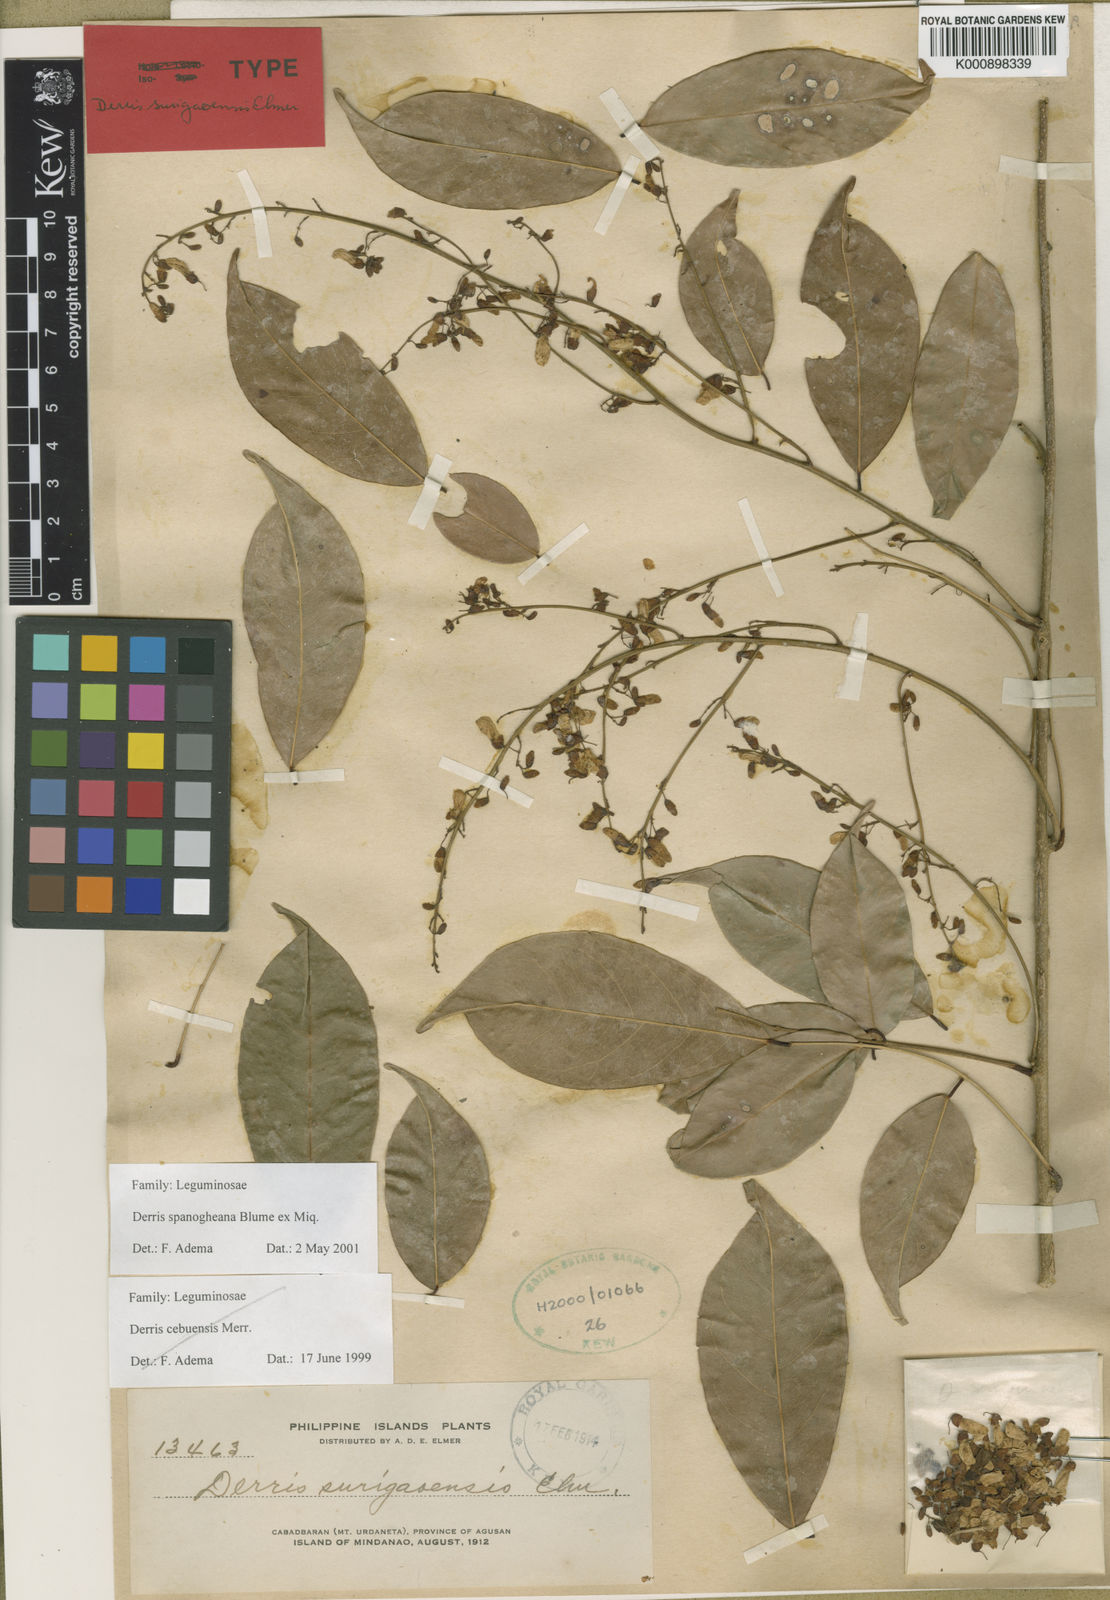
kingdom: Plantae
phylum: Tracheophyta
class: Magnoliopsida
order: Fabales
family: Fabaceae
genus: Derris
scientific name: Derris spanogheana
